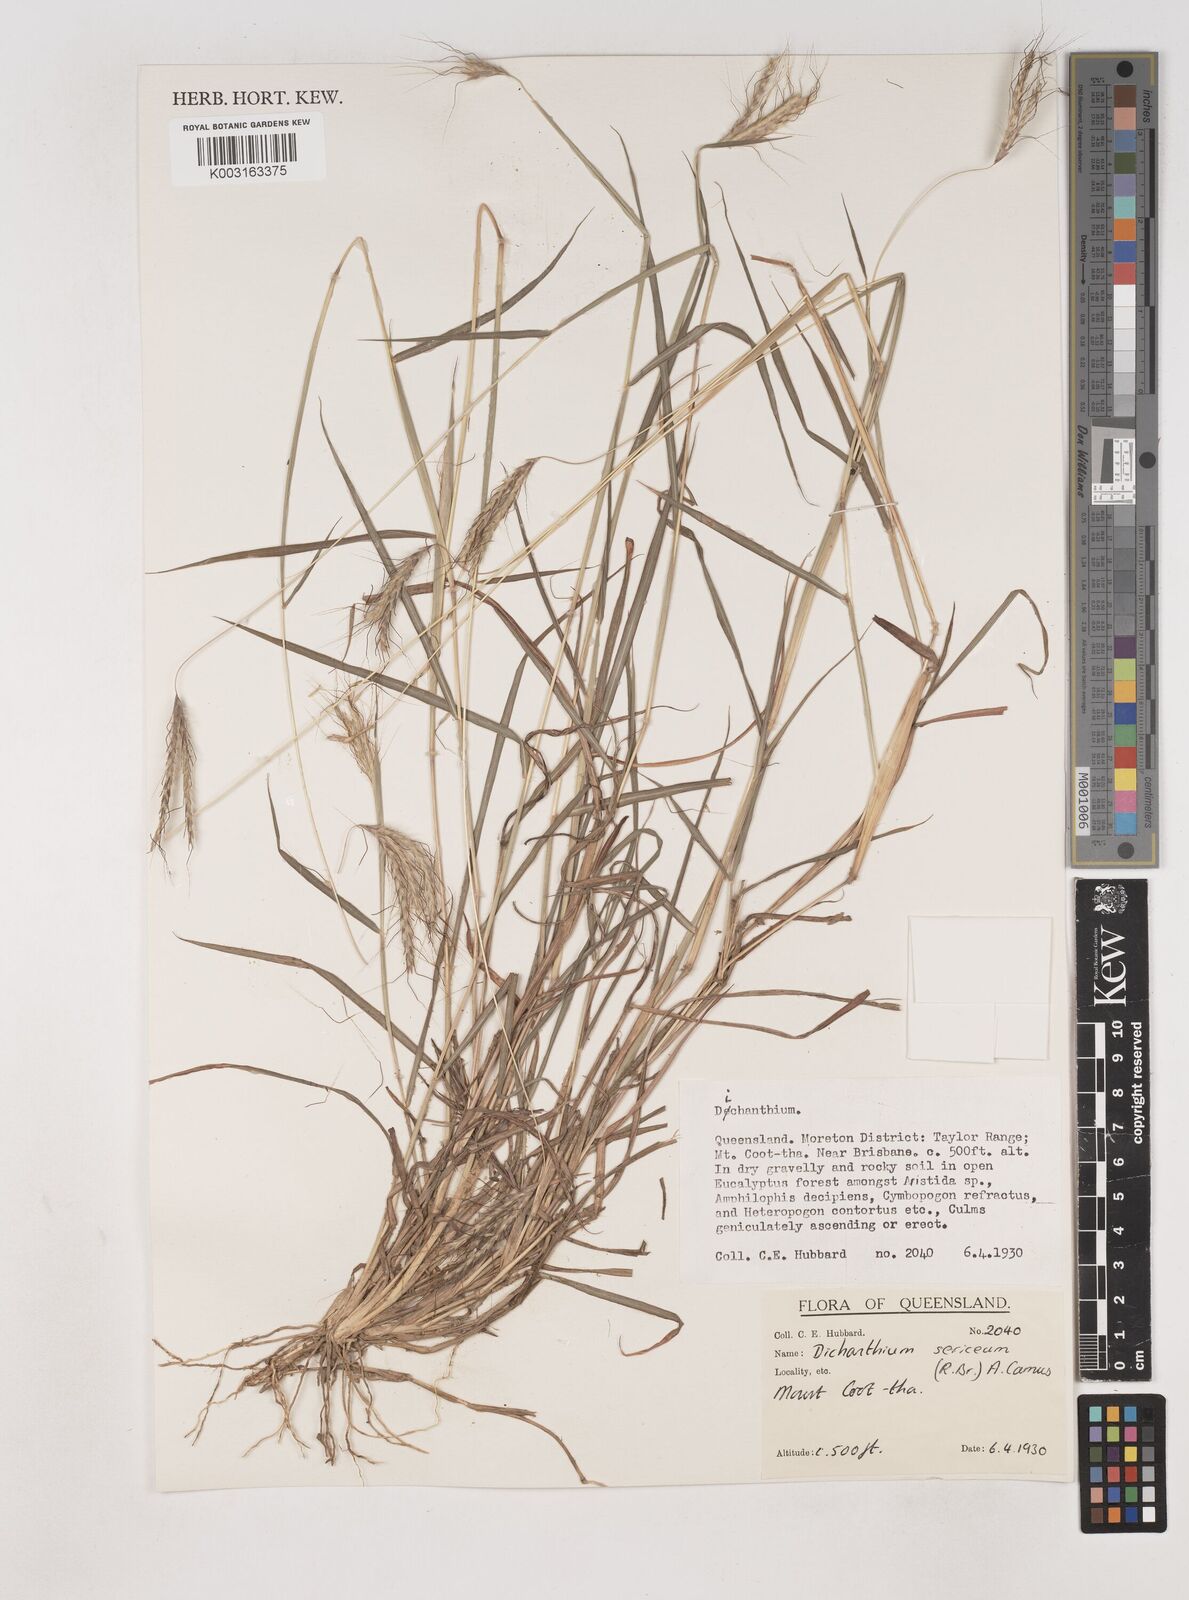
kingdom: Plantae
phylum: Tracheophyta
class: Liliopsida
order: Poales
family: Poaceae
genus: Dichanthium
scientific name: Dichanthium sericeum
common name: Silky bluestem
